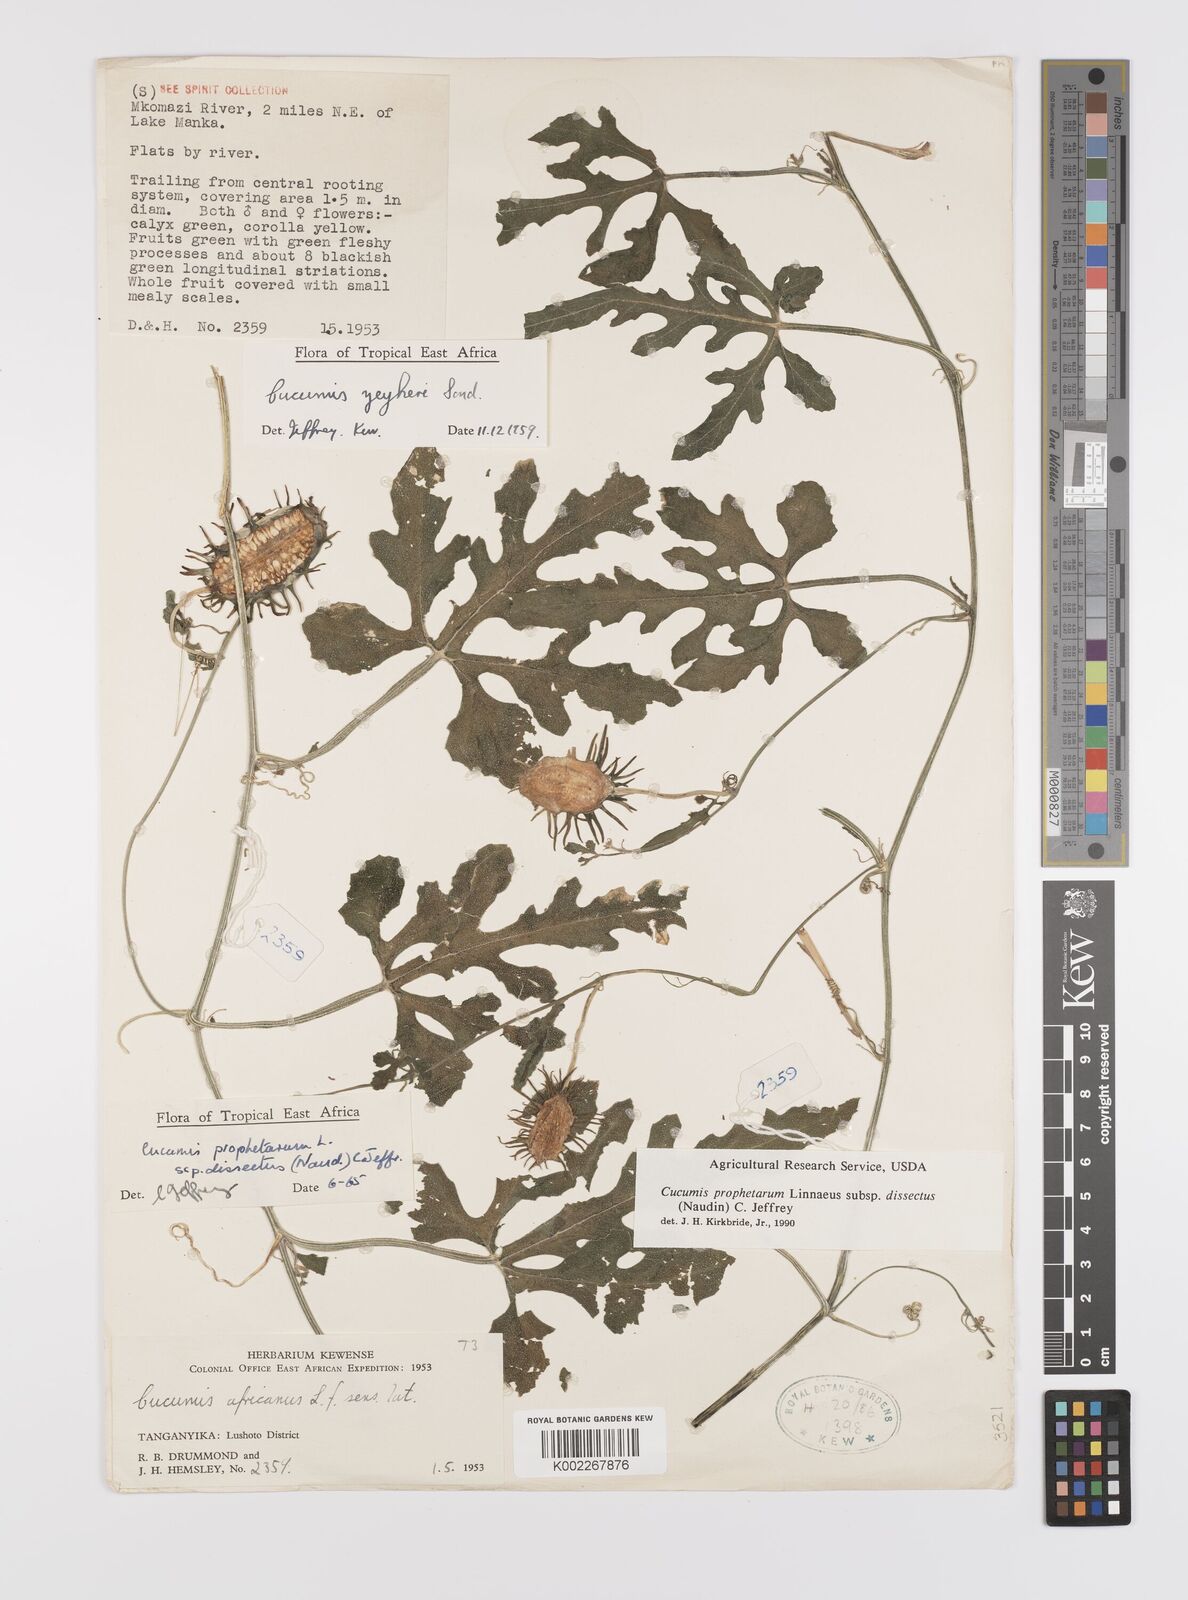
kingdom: Plantae
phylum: Tracheophyta
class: Magnoliopsida
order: Cucurbitales
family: Cucurbitaceae
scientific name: Cucurbitaceae
